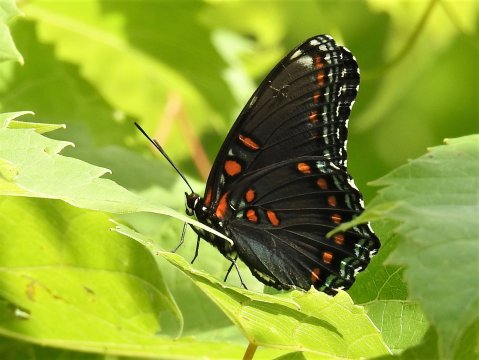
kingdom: Animalia
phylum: Arthropoda
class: Insecta
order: Lepidoptera
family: Nymphalidae
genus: Limenitis
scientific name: Limenitis arthemis
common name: Red-spotted Admiral
